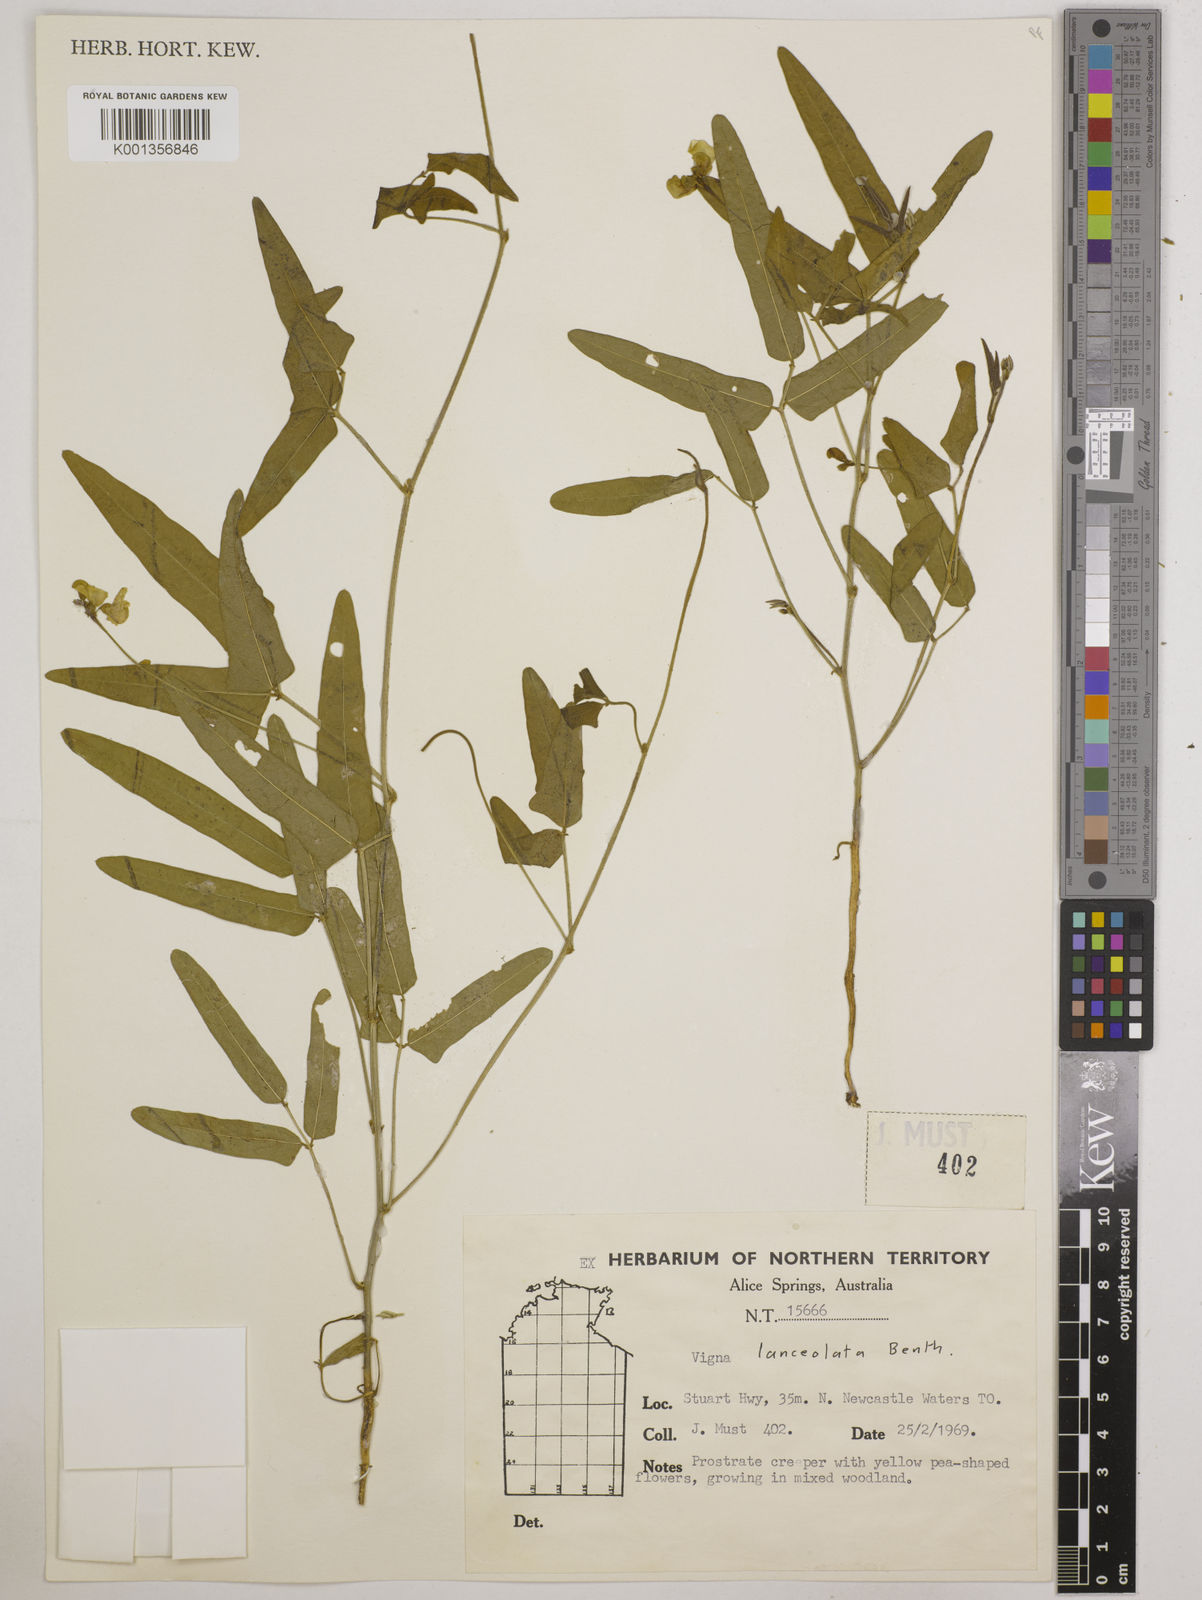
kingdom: Plantae
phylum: Tracheophyta
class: Magnoliopsida
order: Fabales
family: Fabaceae
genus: Vigna
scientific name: Vigna lanceolata
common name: Maloga-bean
